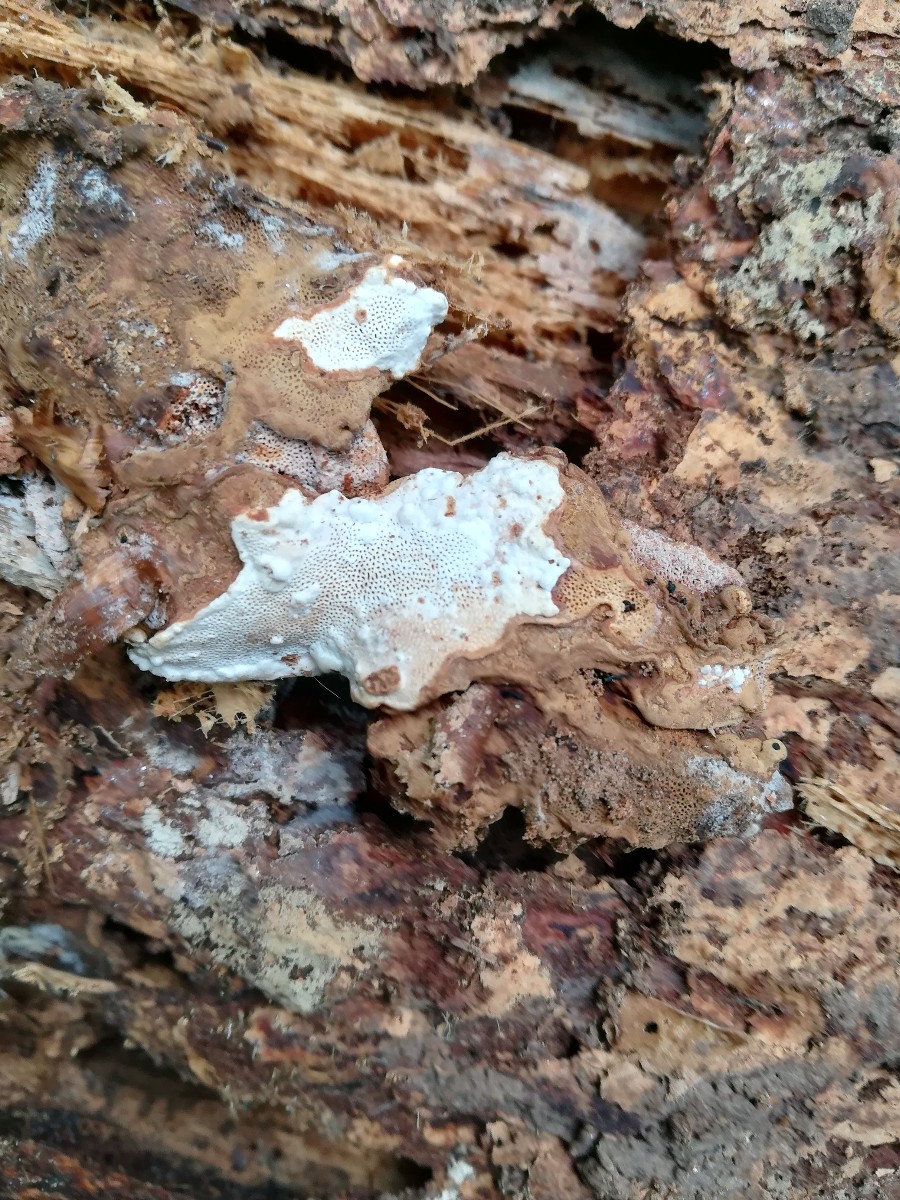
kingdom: Fungi
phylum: Basidiomycota
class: Agaricomycetes
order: Russulales
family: Bondarzewiaceae
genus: Heterobasidion
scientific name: Heterobasidion annosum
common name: almindelig rodfordærver
